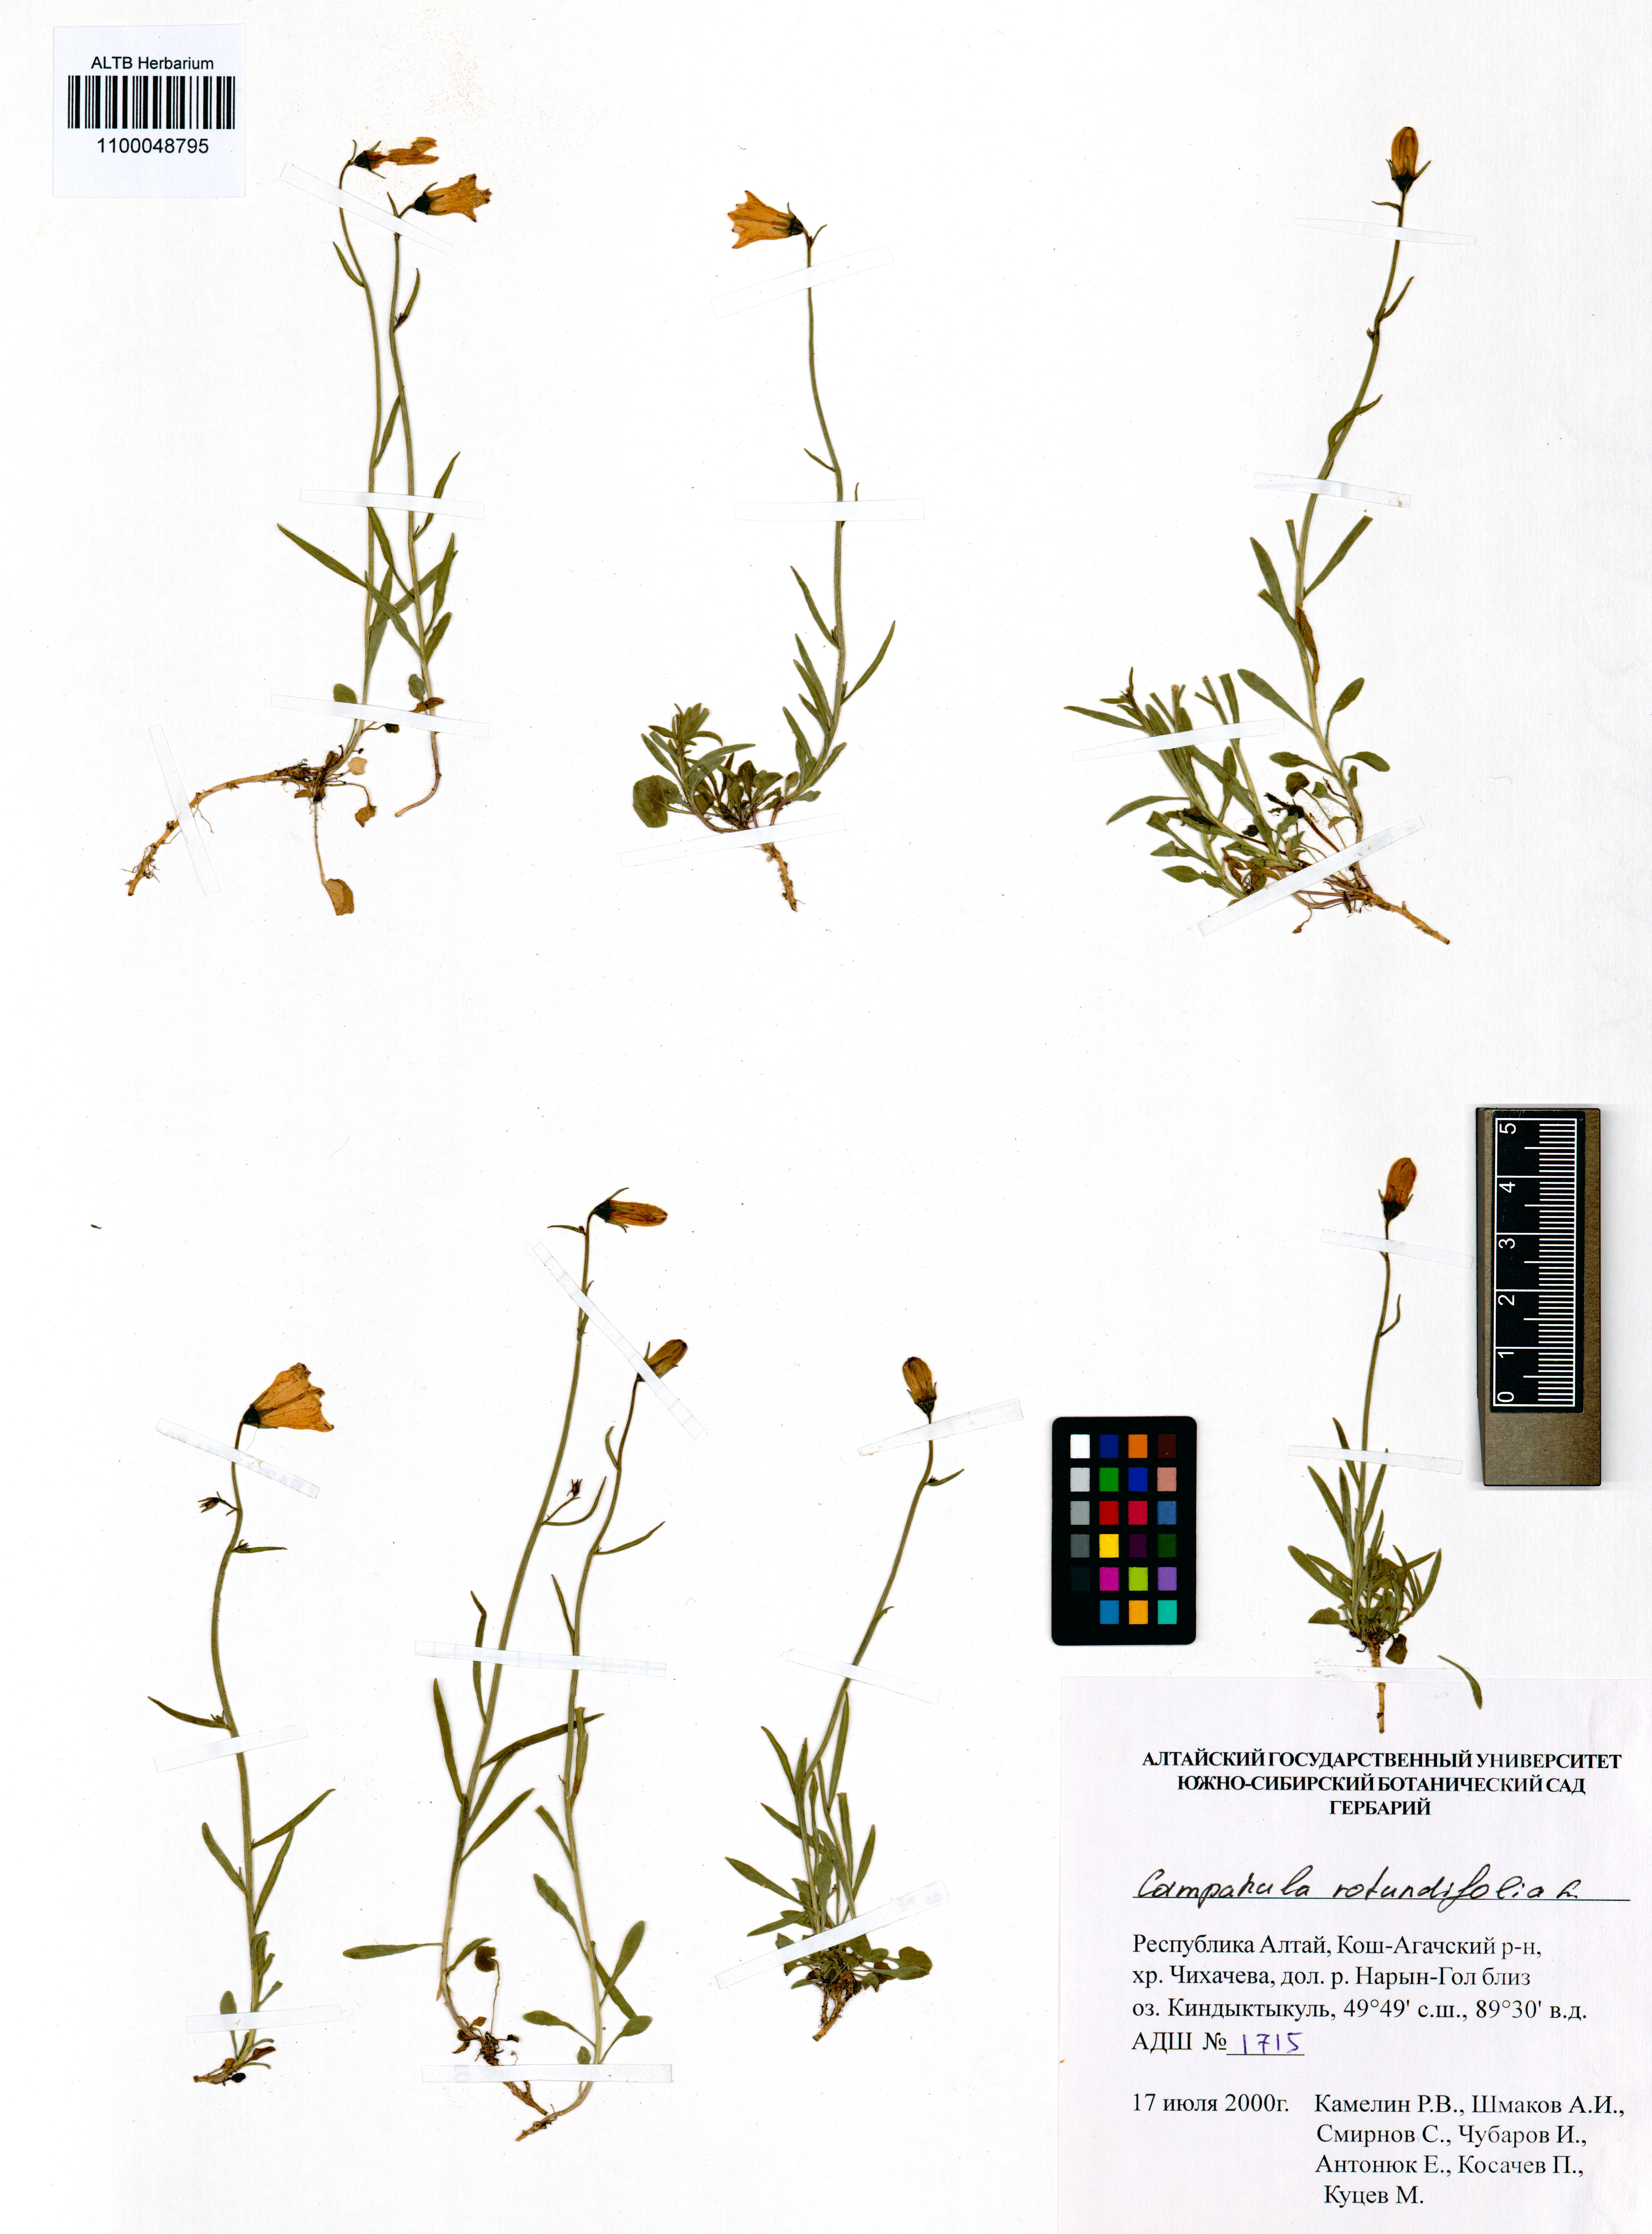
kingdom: Plantae
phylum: Tracheophyta
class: Magnoliopsida
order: Asterales
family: Campanulaceae
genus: Campanula
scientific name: Campanula rotundifolia
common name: Harebell
